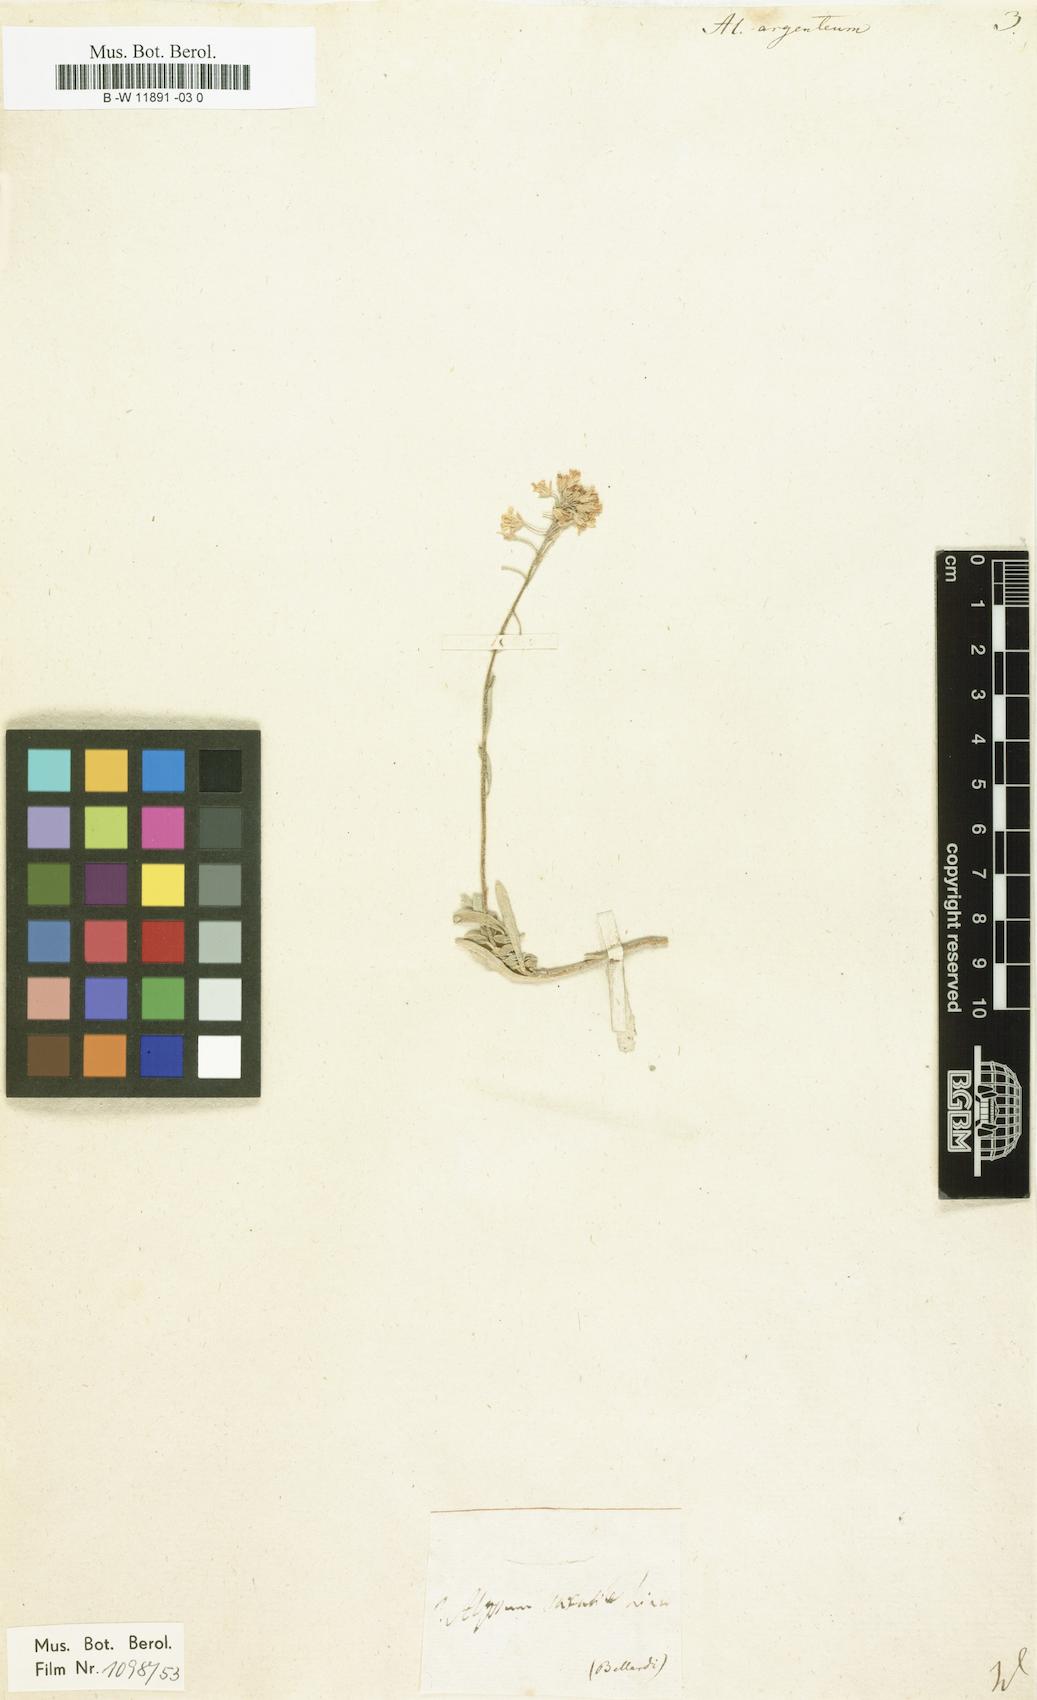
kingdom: Plantae
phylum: Tracheophyta
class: Magnoliopsida
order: Brassicales
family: Brassicaceae
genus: Odontarrhena
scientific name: Odontarrhena argentea
